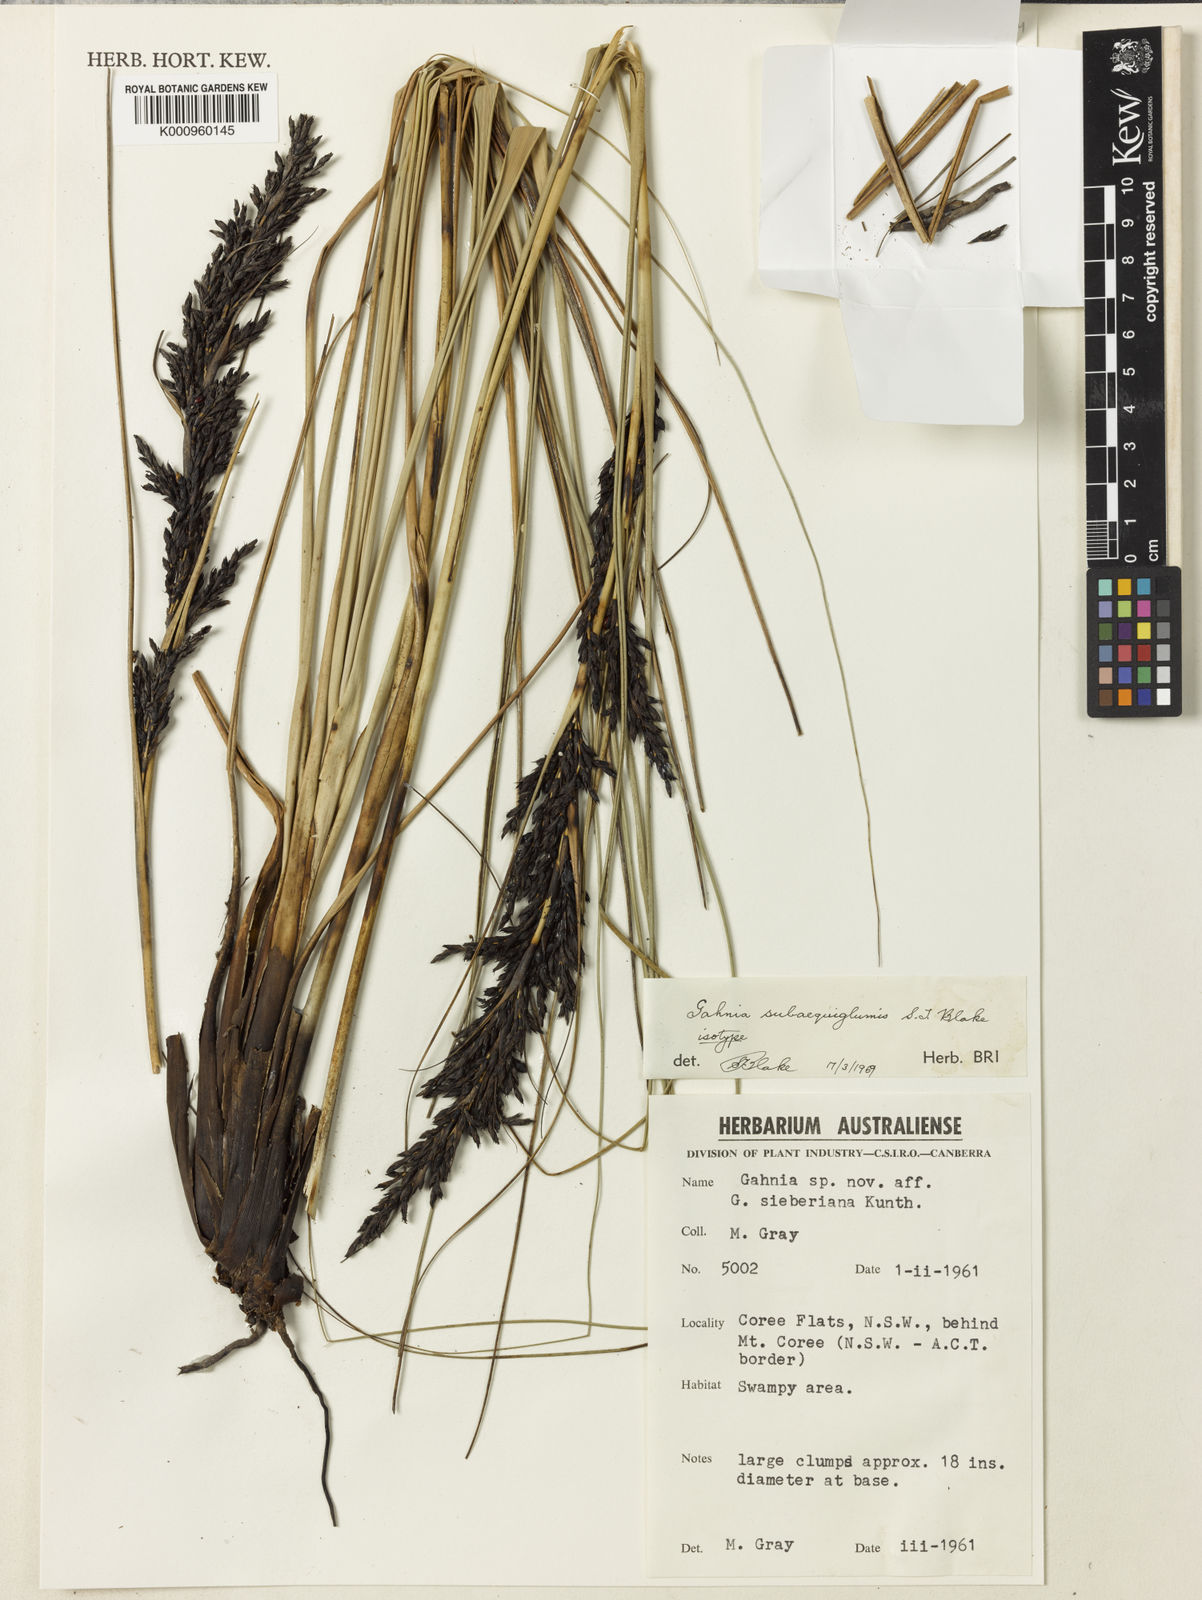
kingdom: Plantae
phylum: Tracheophyta
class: Liliopsida
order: Poales
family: Cyperaceae
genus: Gahnia
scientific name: Gahnia subaequiglumis
